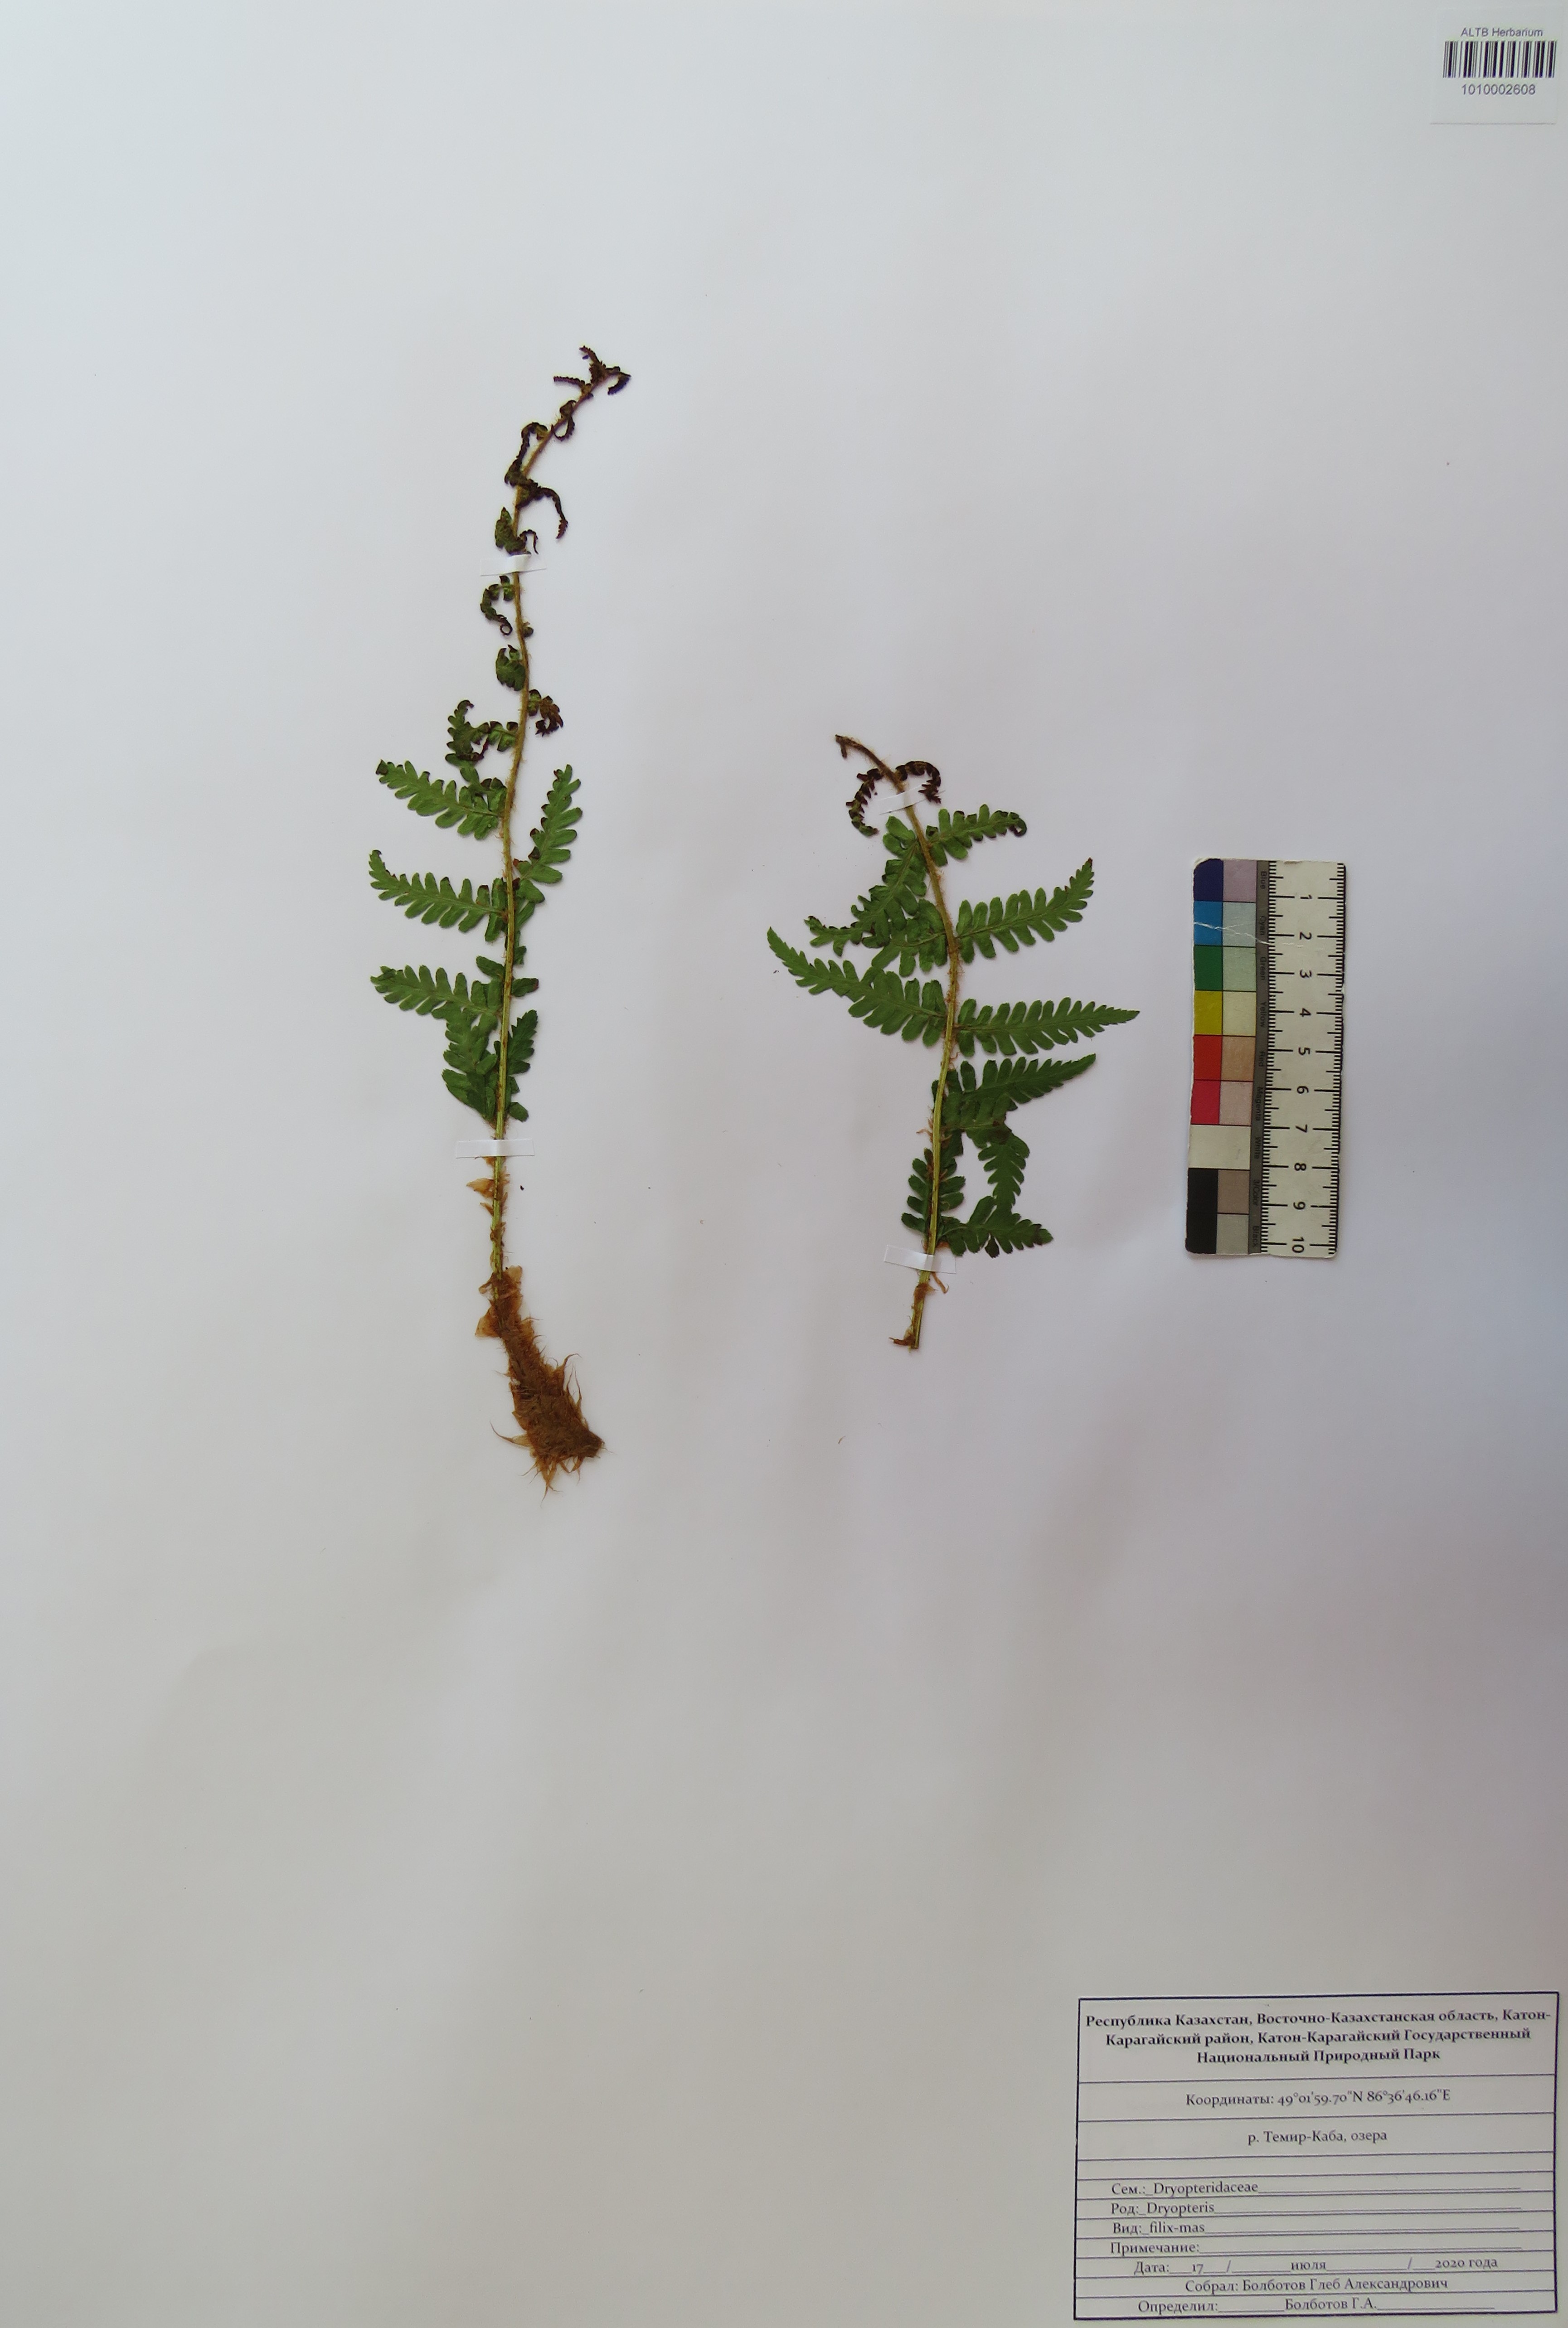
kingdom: Plantae
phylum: Tracheophyta
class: Polypodiopsida
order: Polypodiales
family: Dryopteridaceae
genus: Dryopteris
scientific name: Dryopteris filix-mas
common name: Male fern
